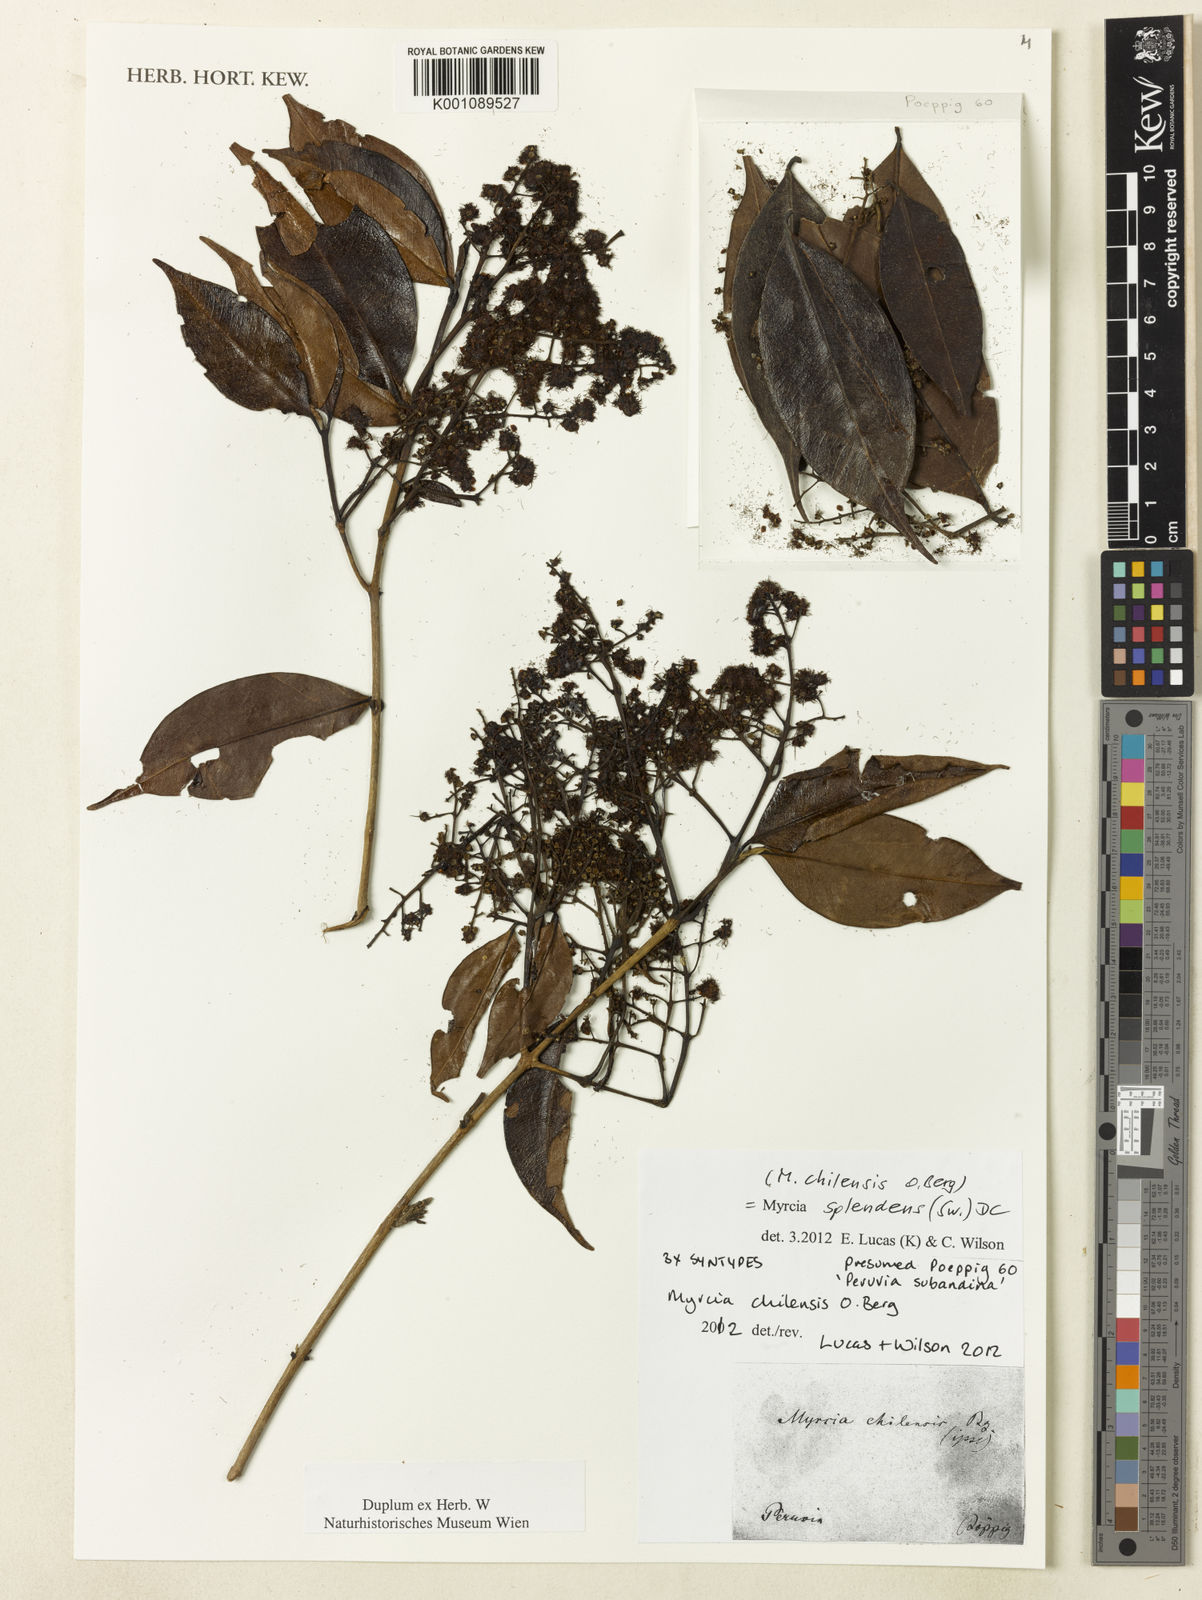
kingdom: Plantae
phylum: Tracheophyta
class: Magnoliopsida
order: Myrtales
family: Myrtaceae
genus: Myrcia
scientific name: Myrcia splendens
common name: Surinam cherry
